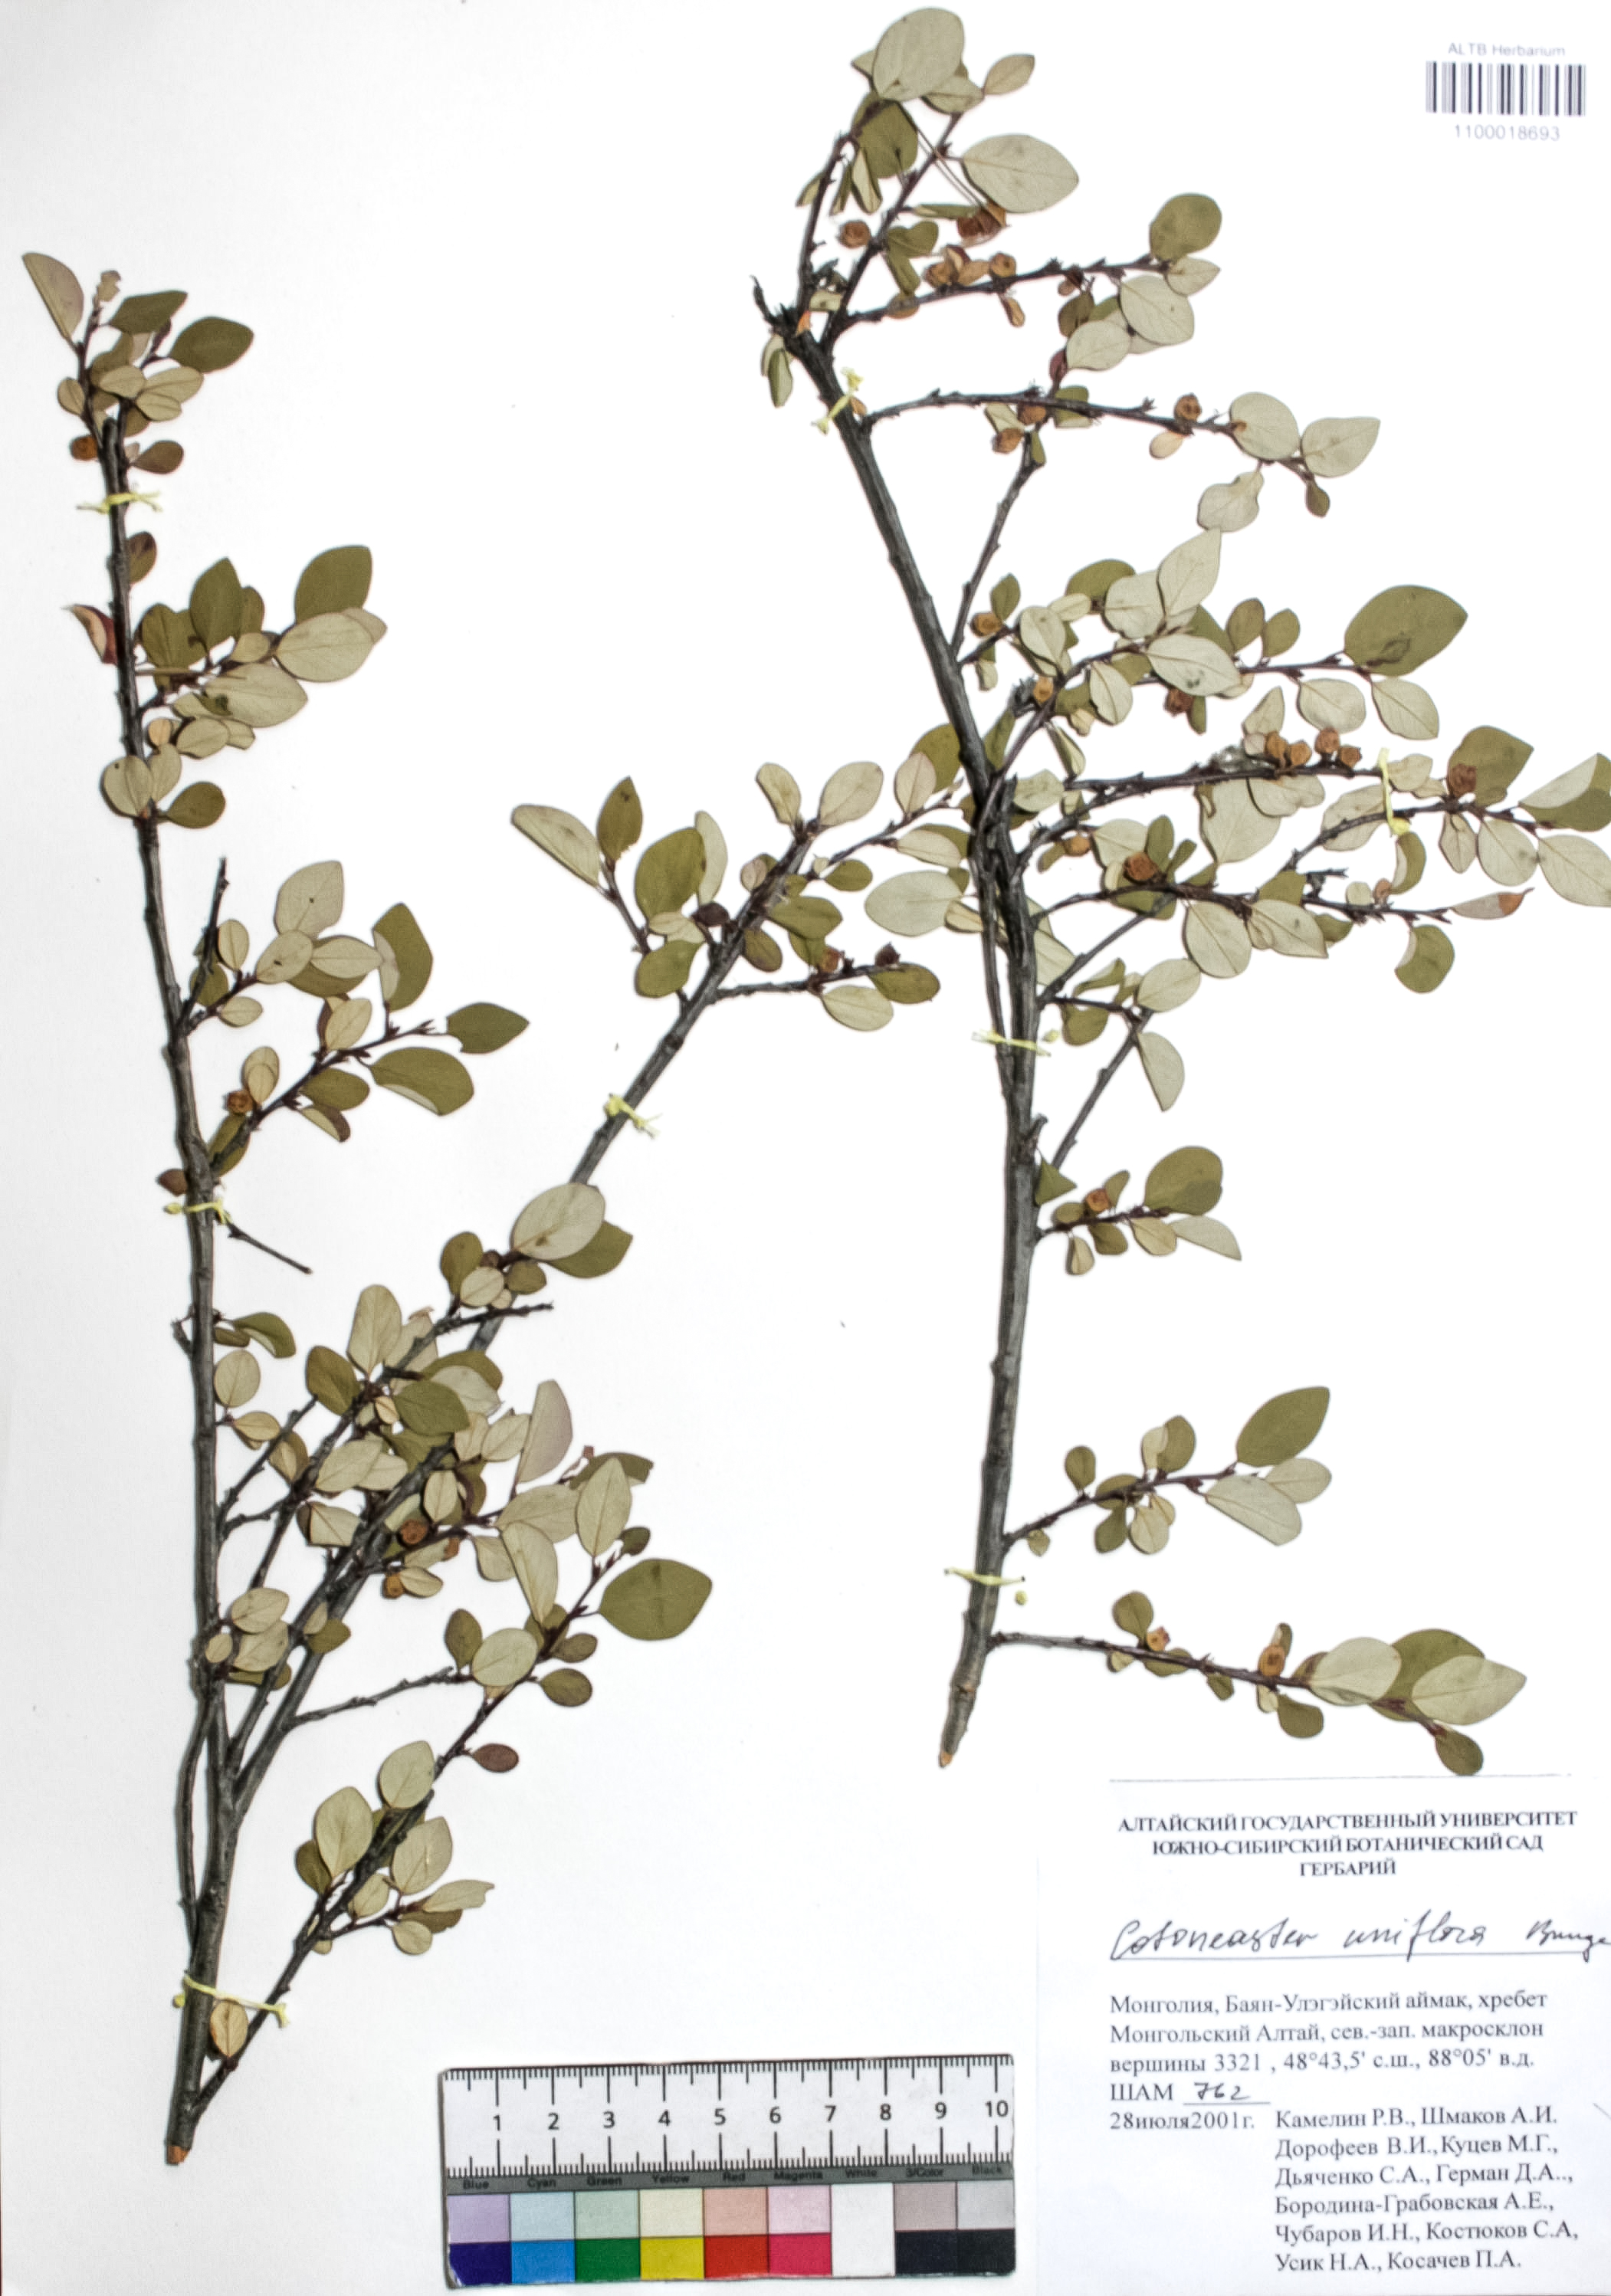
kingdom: Plantae
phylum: Tracheophyta
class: Magnoliopsida
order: Rosales
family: Rosaceae
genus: Cotoneaster
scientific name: Cotoneaster uniflorus
